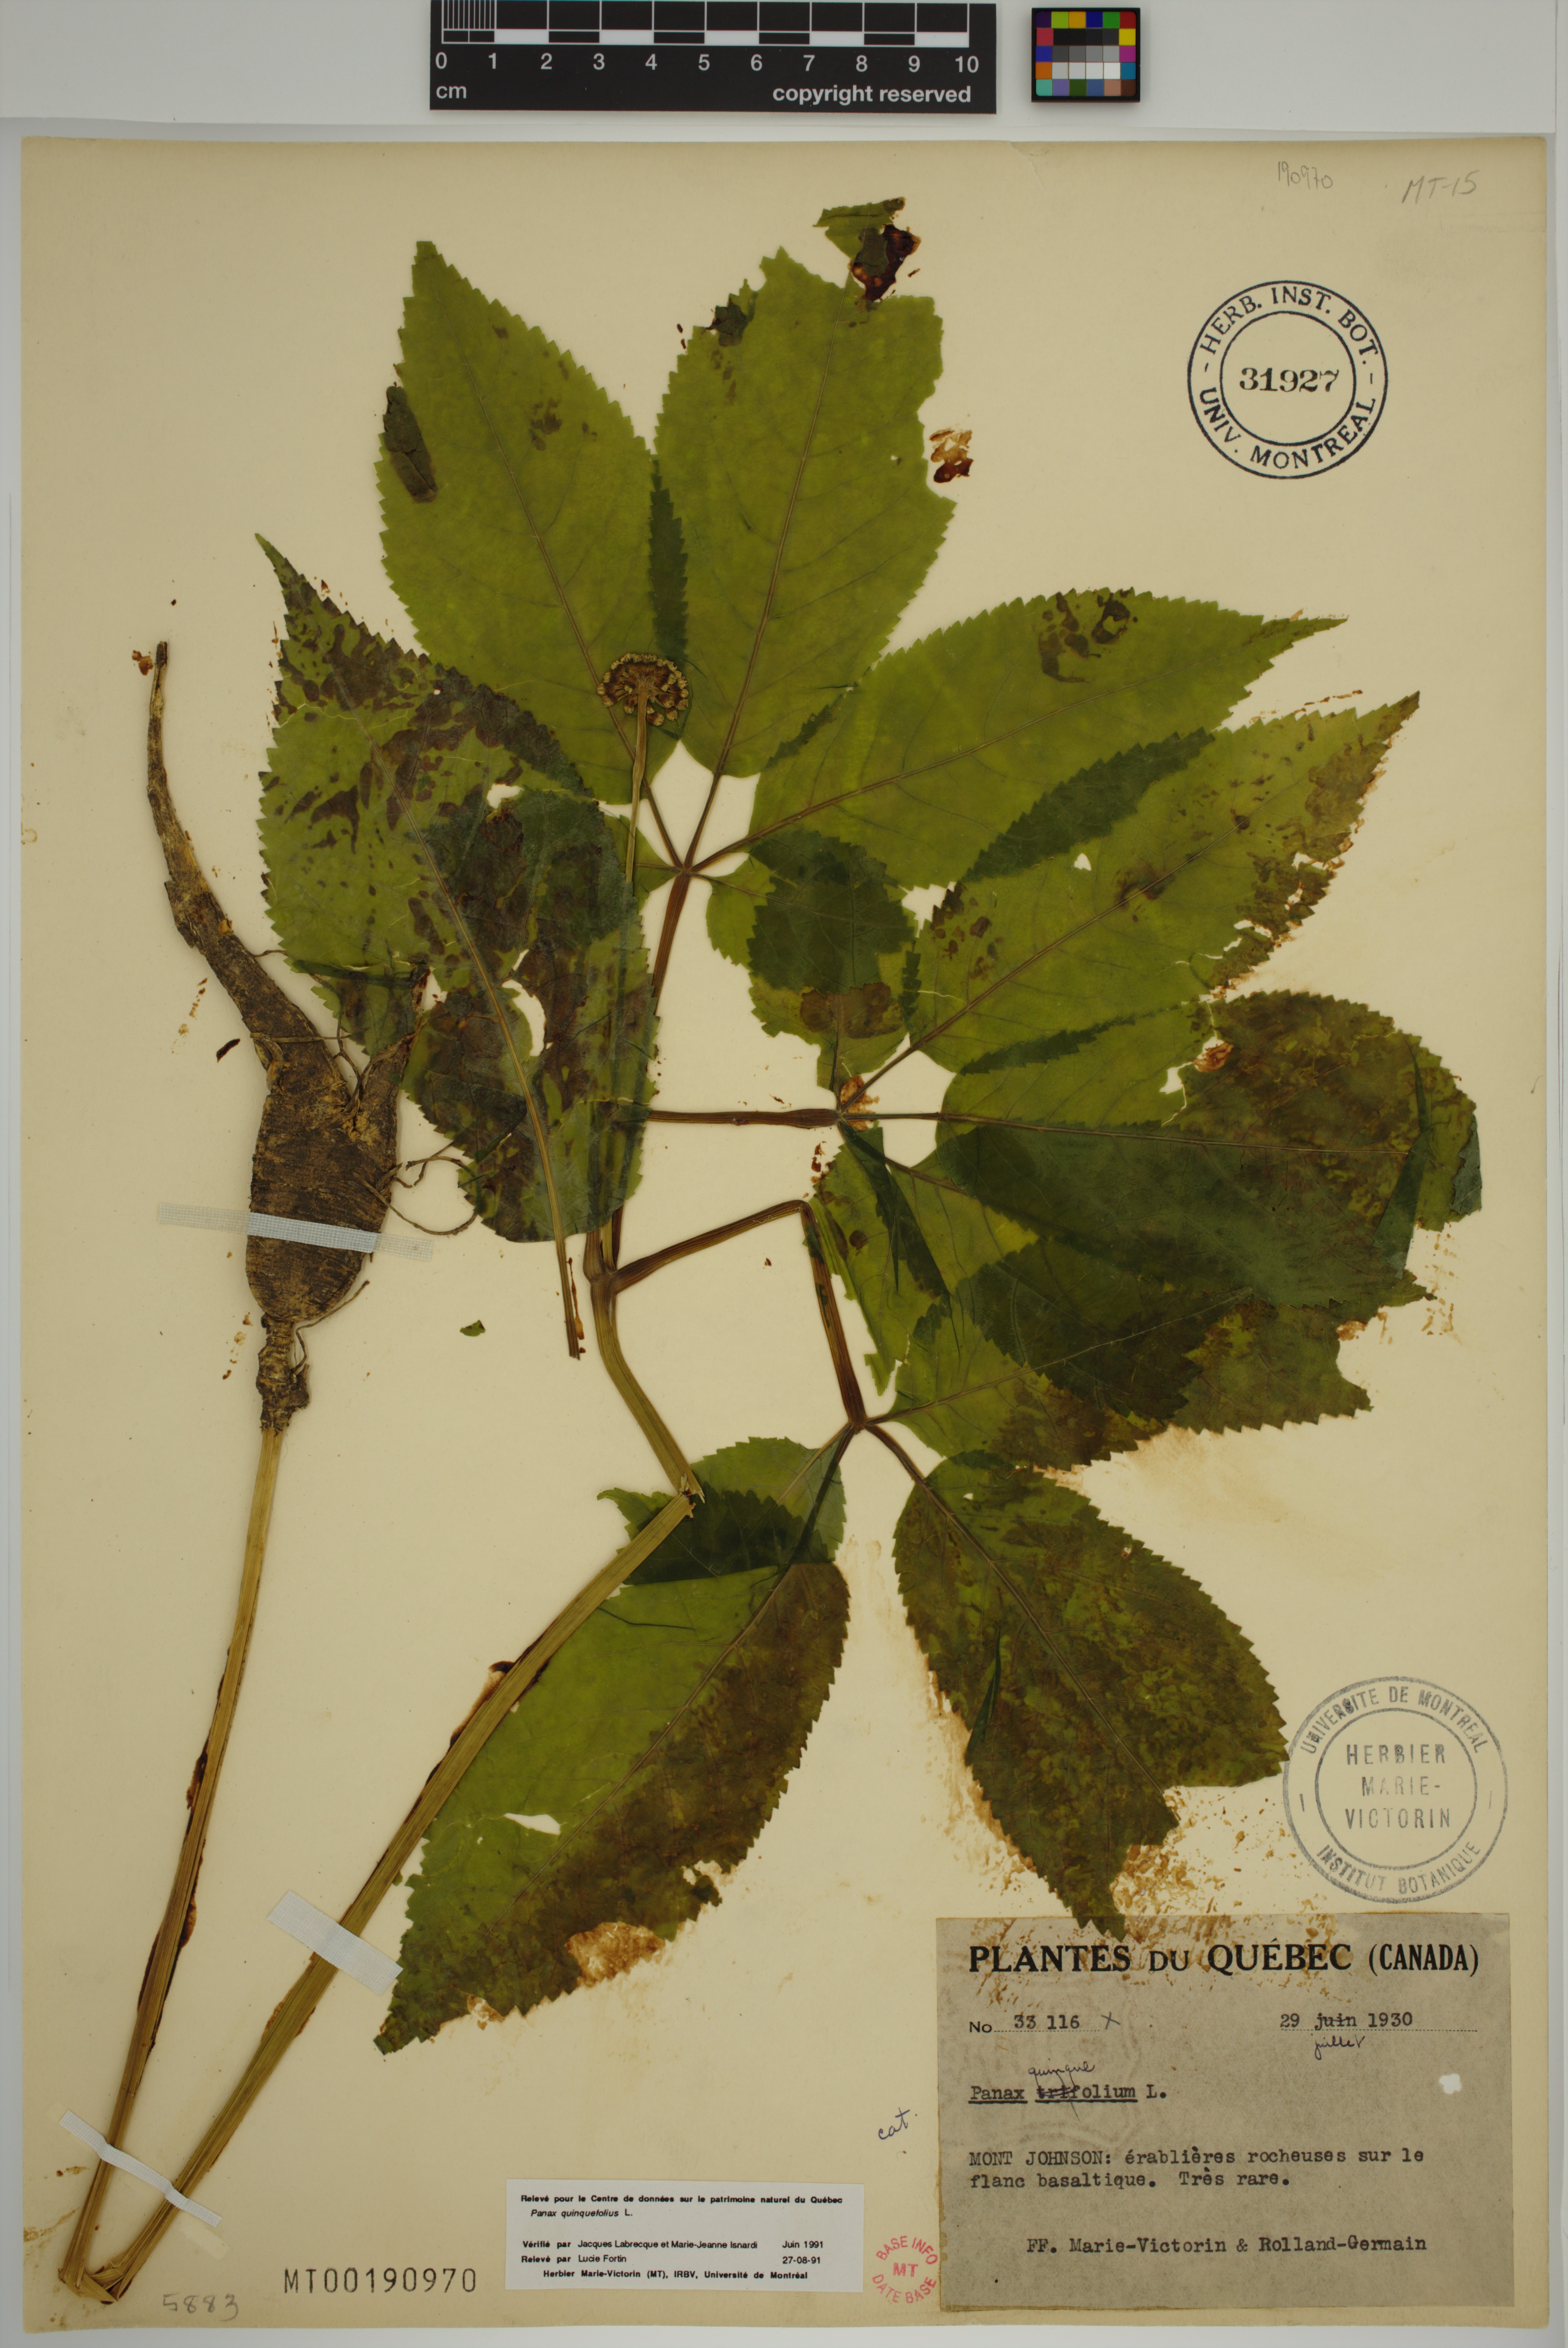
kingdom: Plantae
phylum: Tracheophyta
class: Magnoliopsida
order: Apiales
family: Araliaceae
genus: Panax
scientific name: Panax quinquefolius
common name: American ginseng
